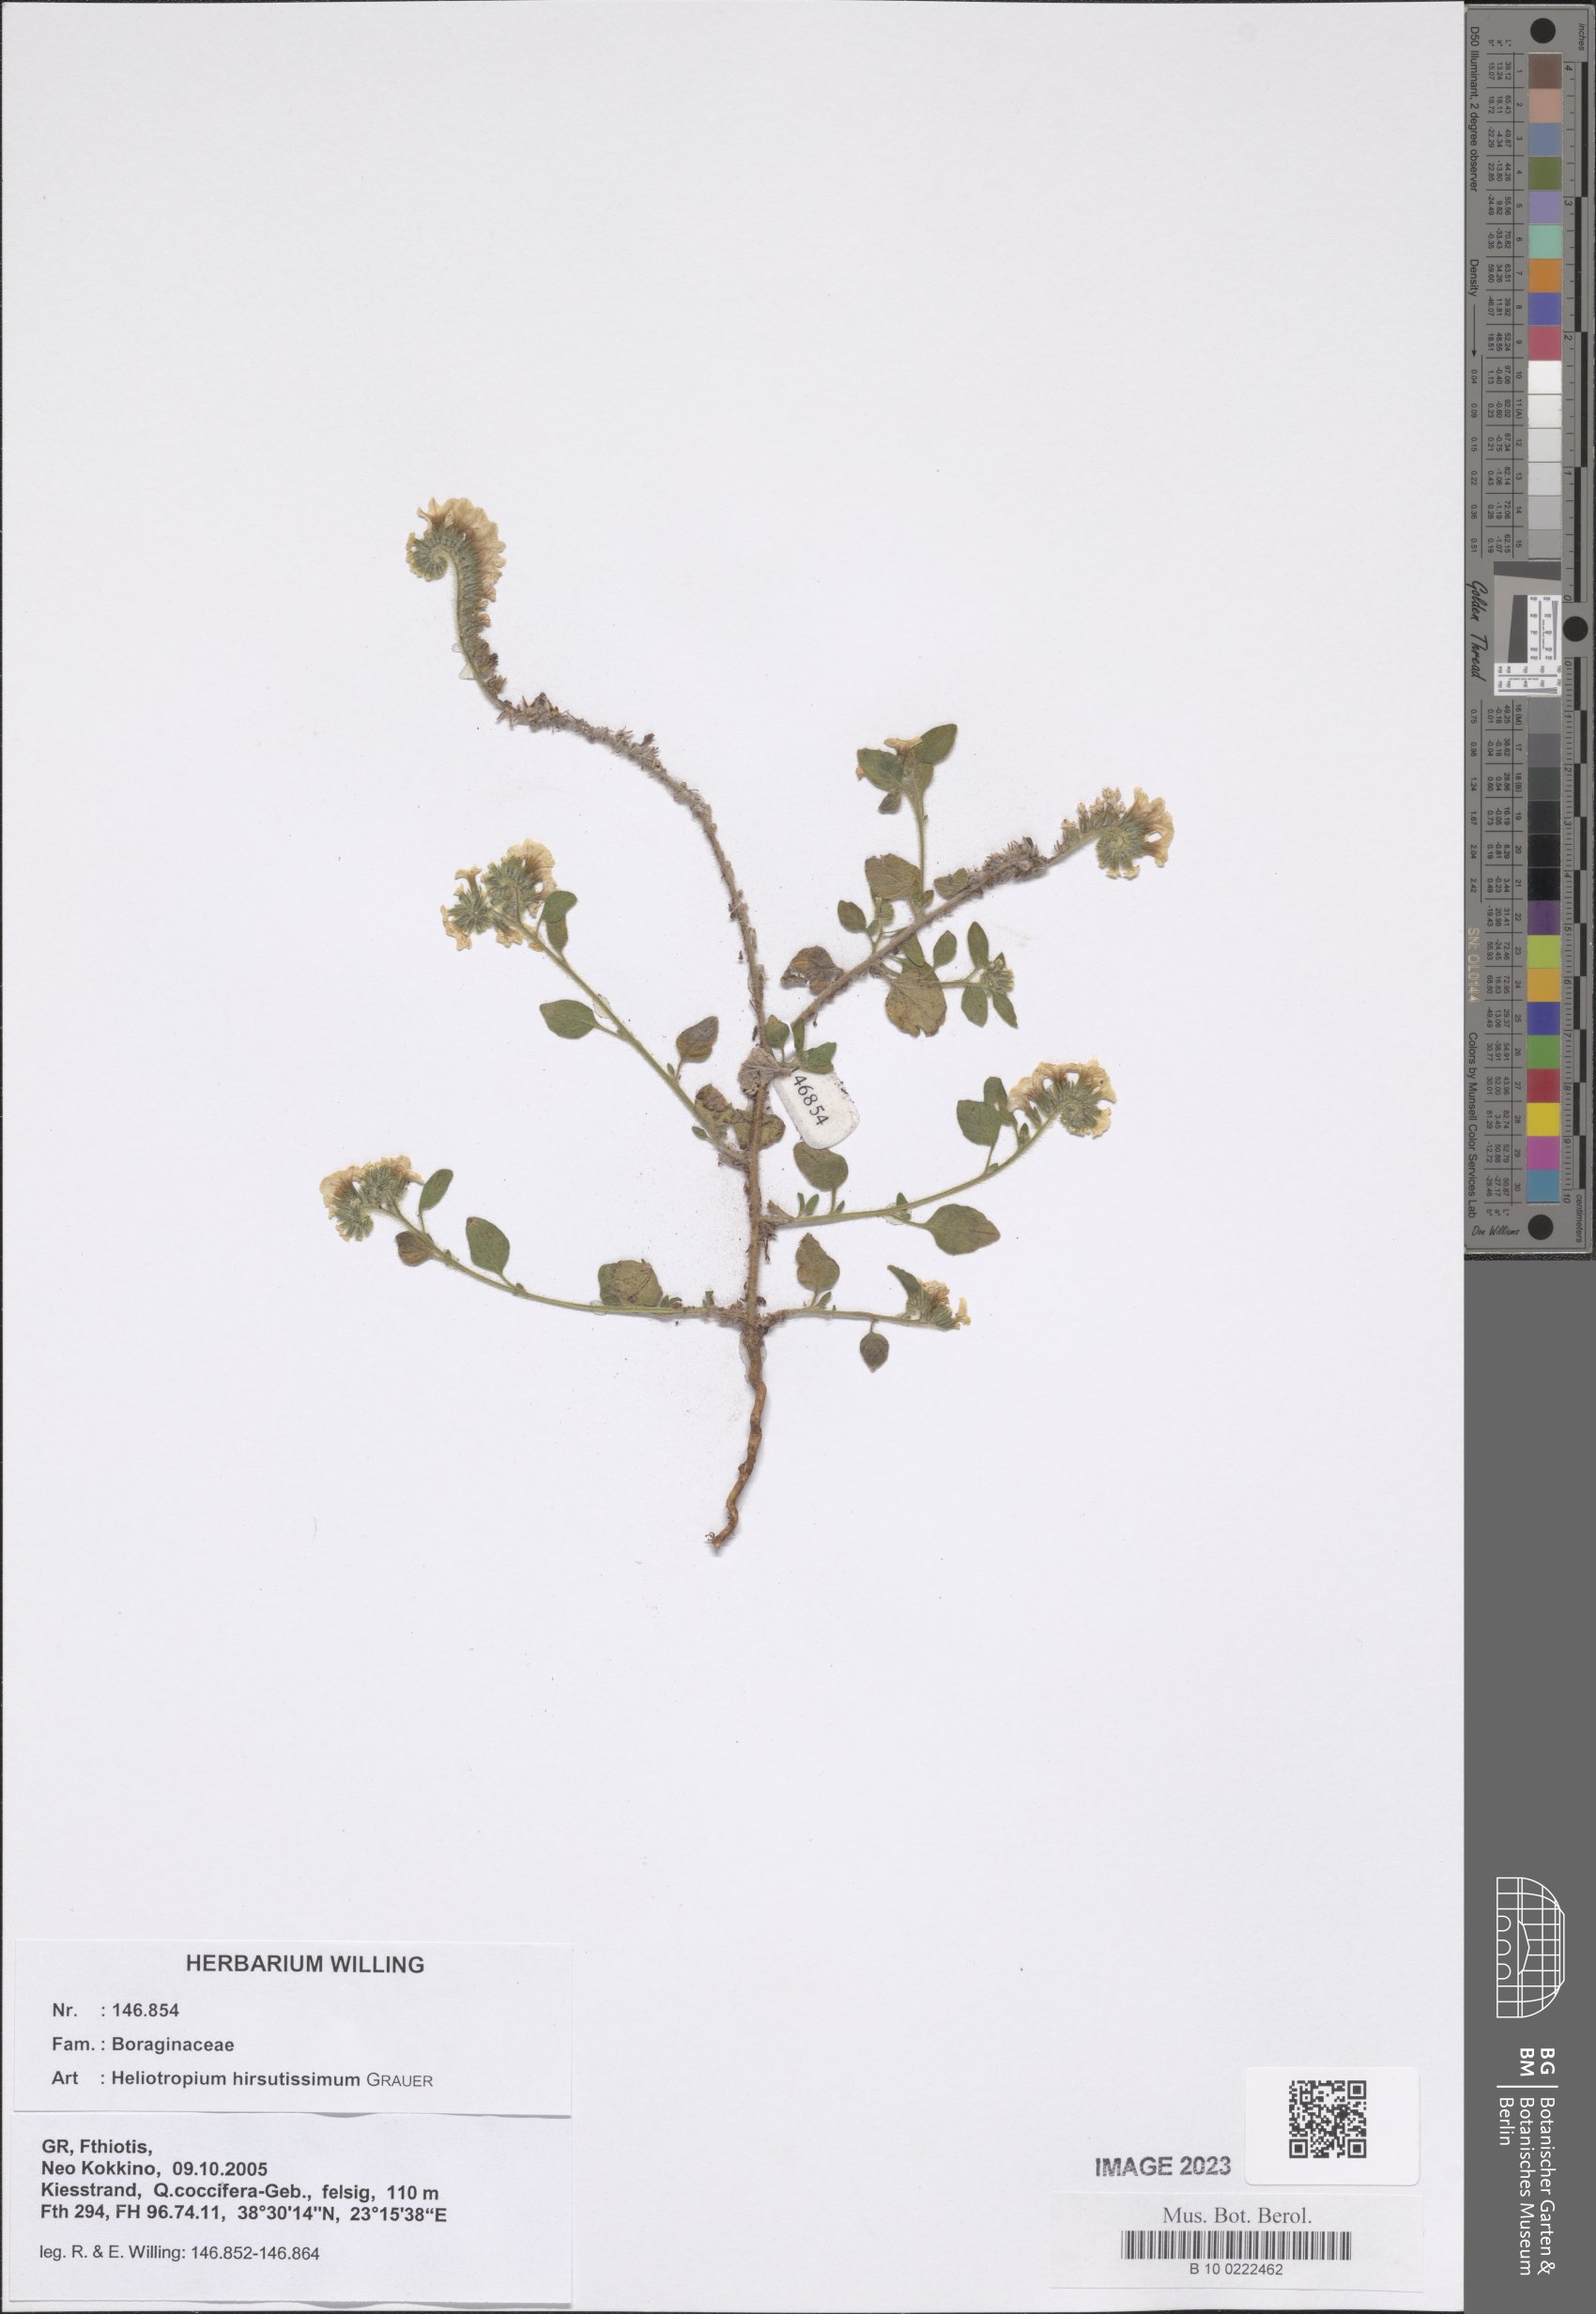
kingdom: Plantae
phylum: Tracheophyta
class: Magnoliopsida
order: Boraginales
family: Heliotropiaceae
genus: Heliotropium
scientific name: Heliotropium hirsutissimum
